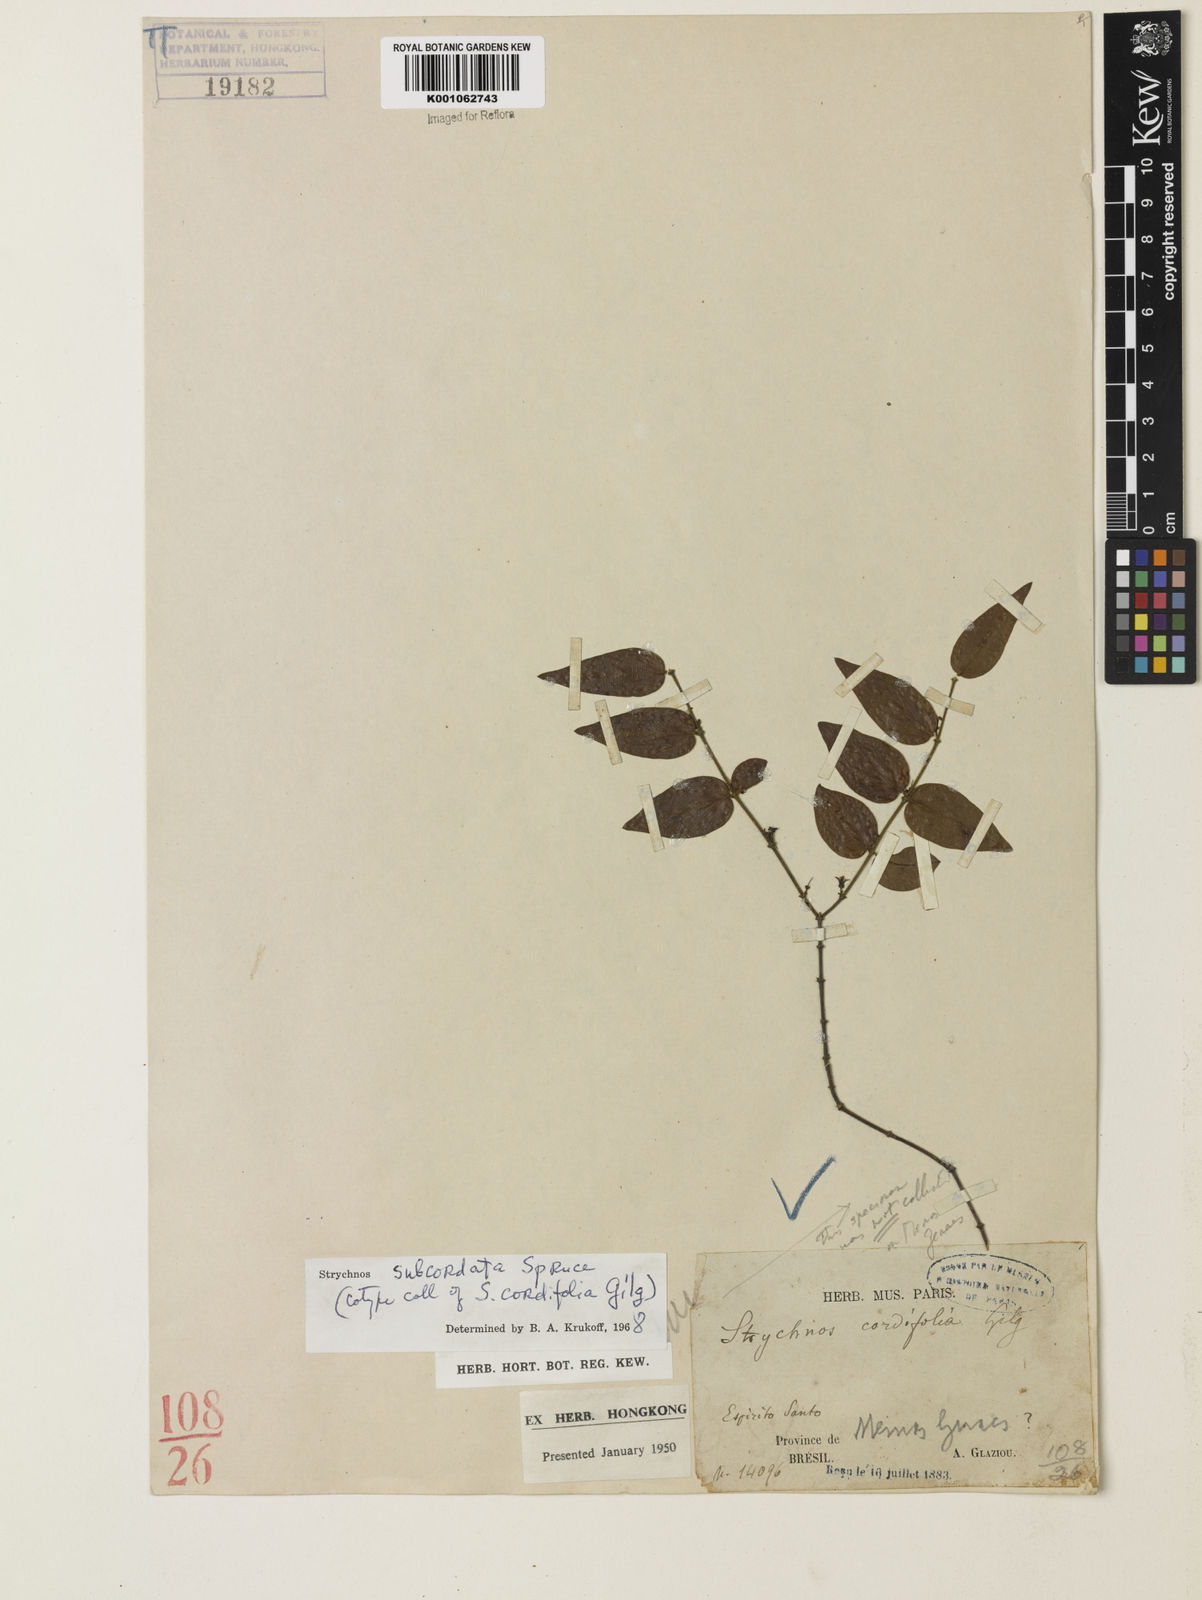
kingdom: Plantae
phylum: Tracheophyta
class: Magnoliopsida
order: Gentianales
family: Loganiaceae
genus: Strychnos
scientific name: Strychnos subcordata
